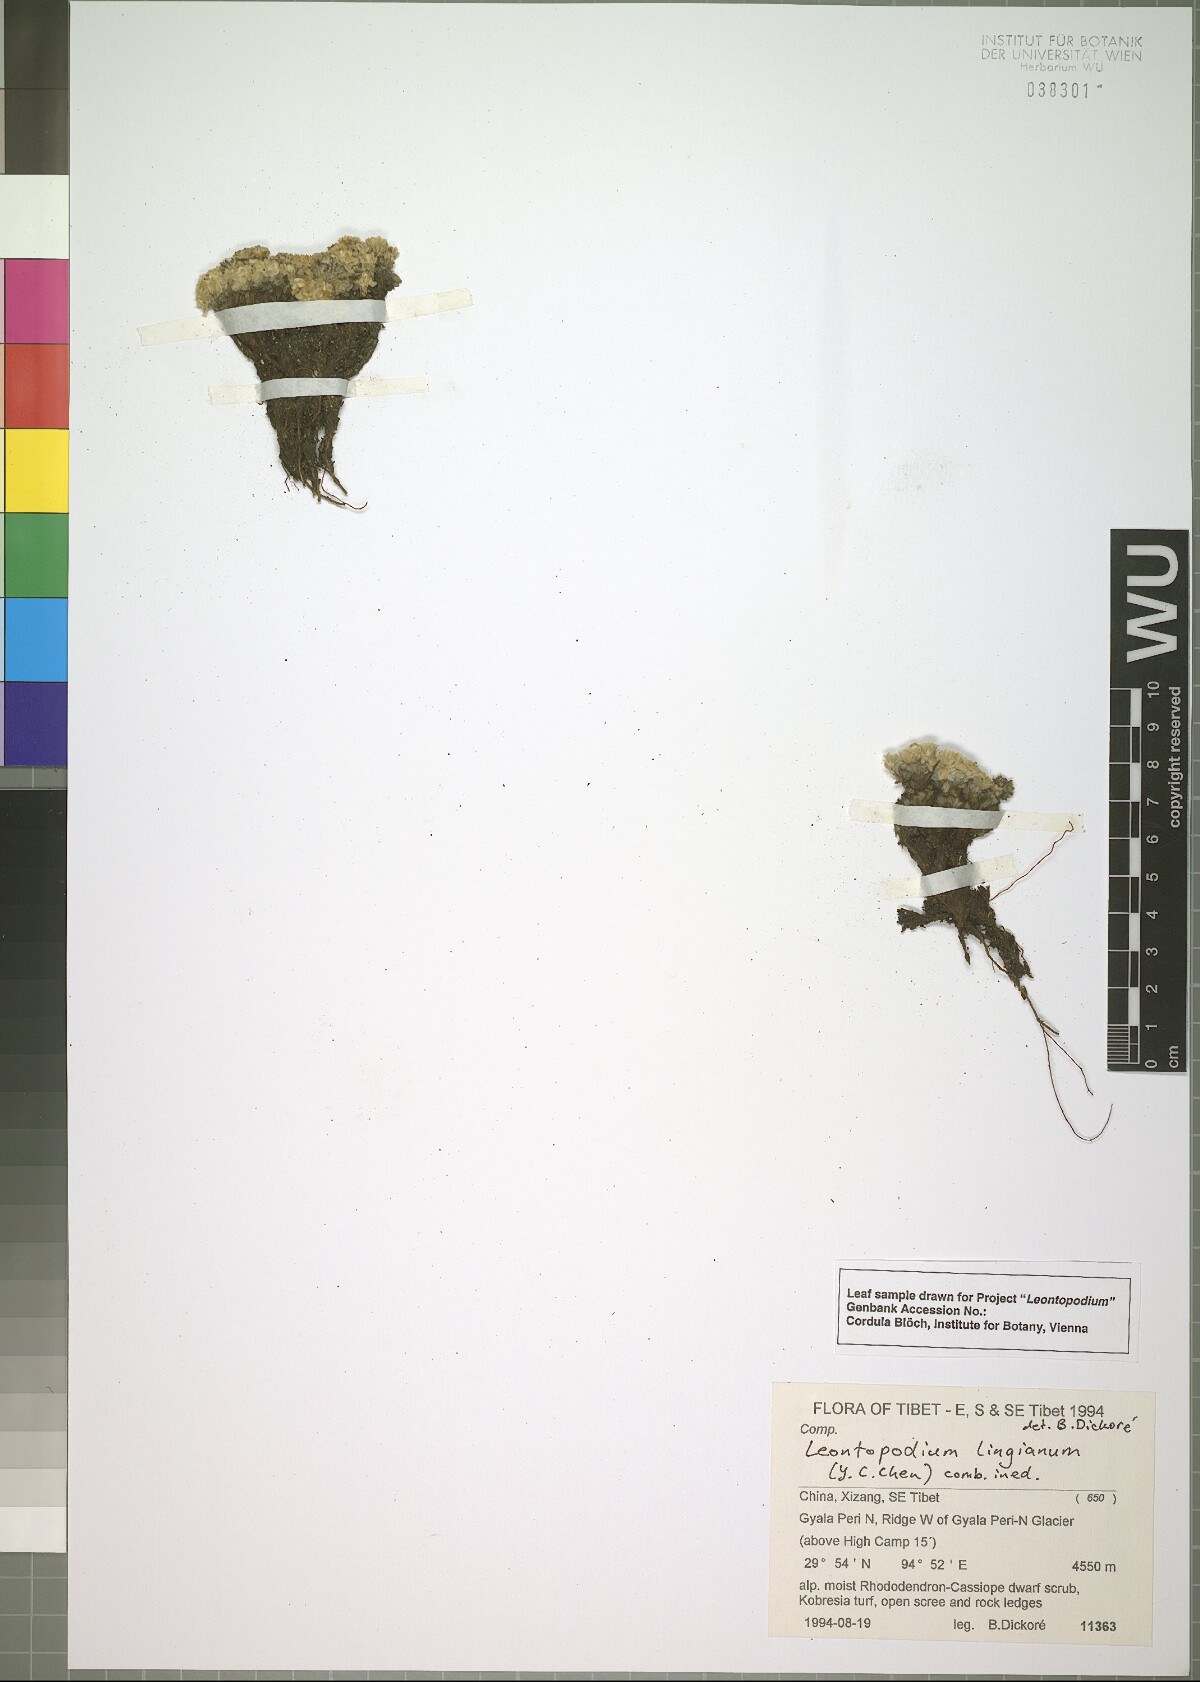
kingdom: Plantae
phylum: Tracheophyta
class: Magnoliopsida
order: Asterales
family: Asteraceae
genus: Leontopodium
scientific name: Leontopodium lingianum
